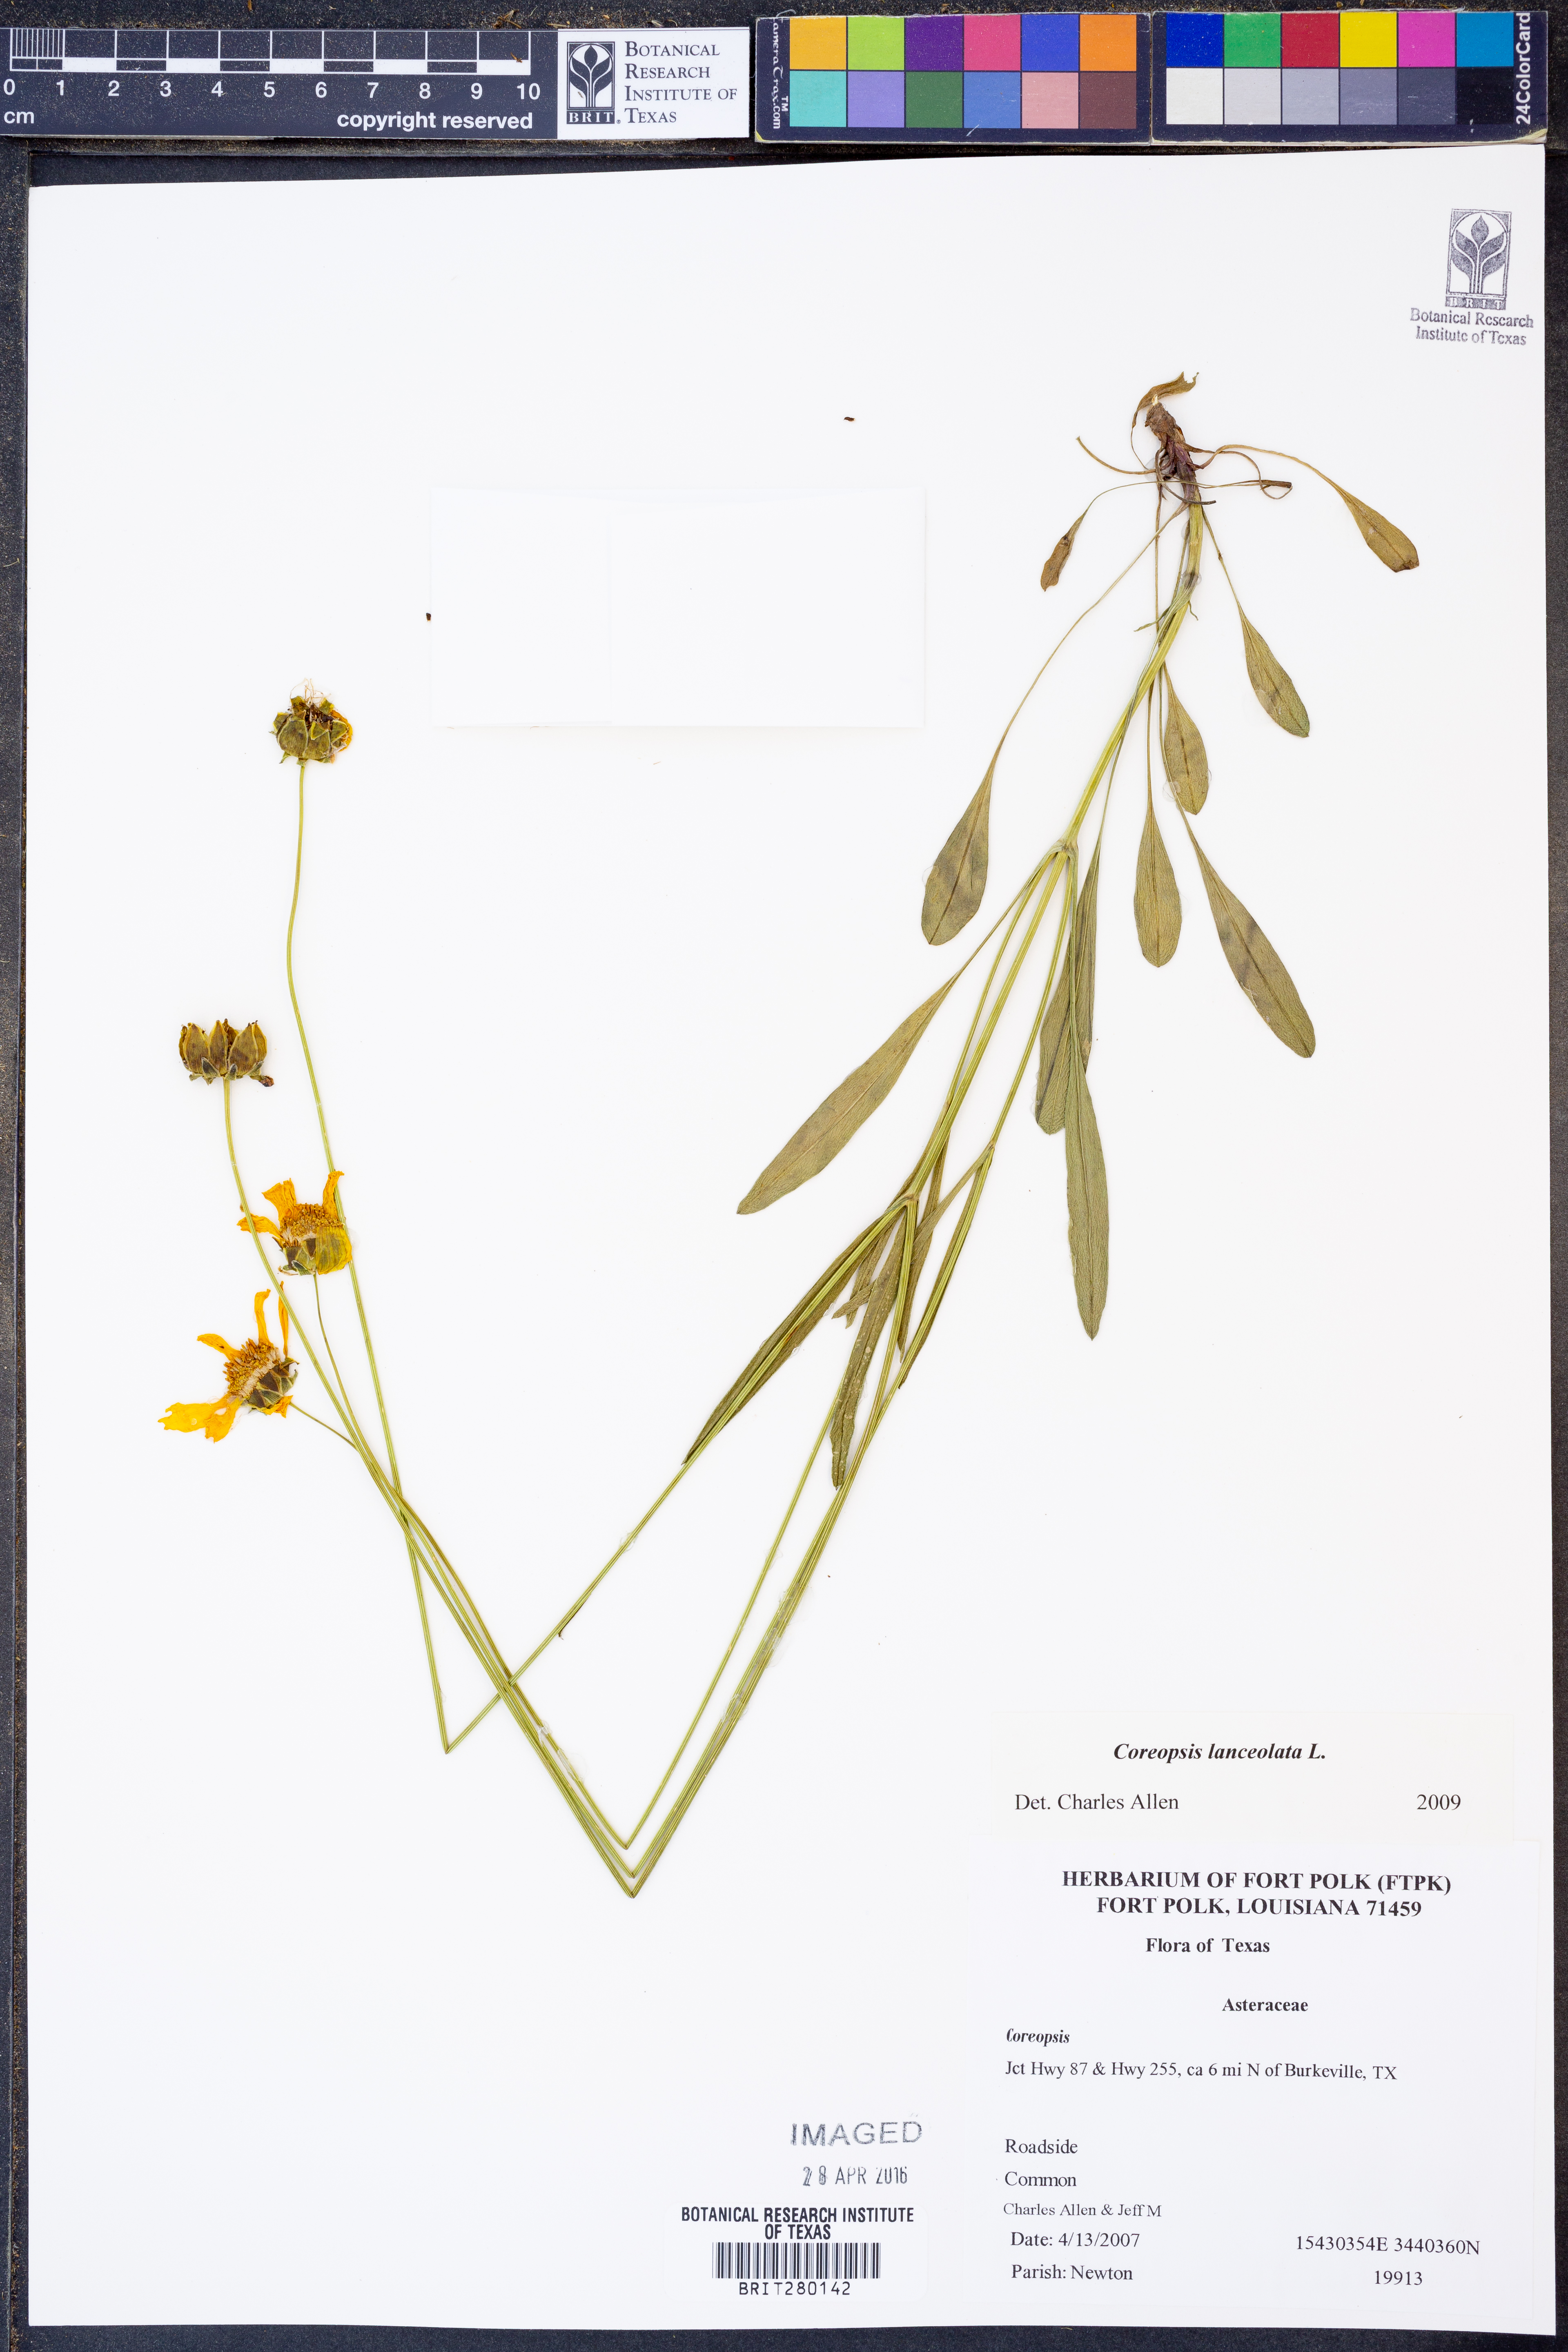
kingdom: Plantae
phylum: Tracheophyta
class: Magnoliopsida
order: Asterales
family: Asteraceae
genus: Coreopsis
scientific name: Coreopsis lanceolata
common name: Garden coreopsis
